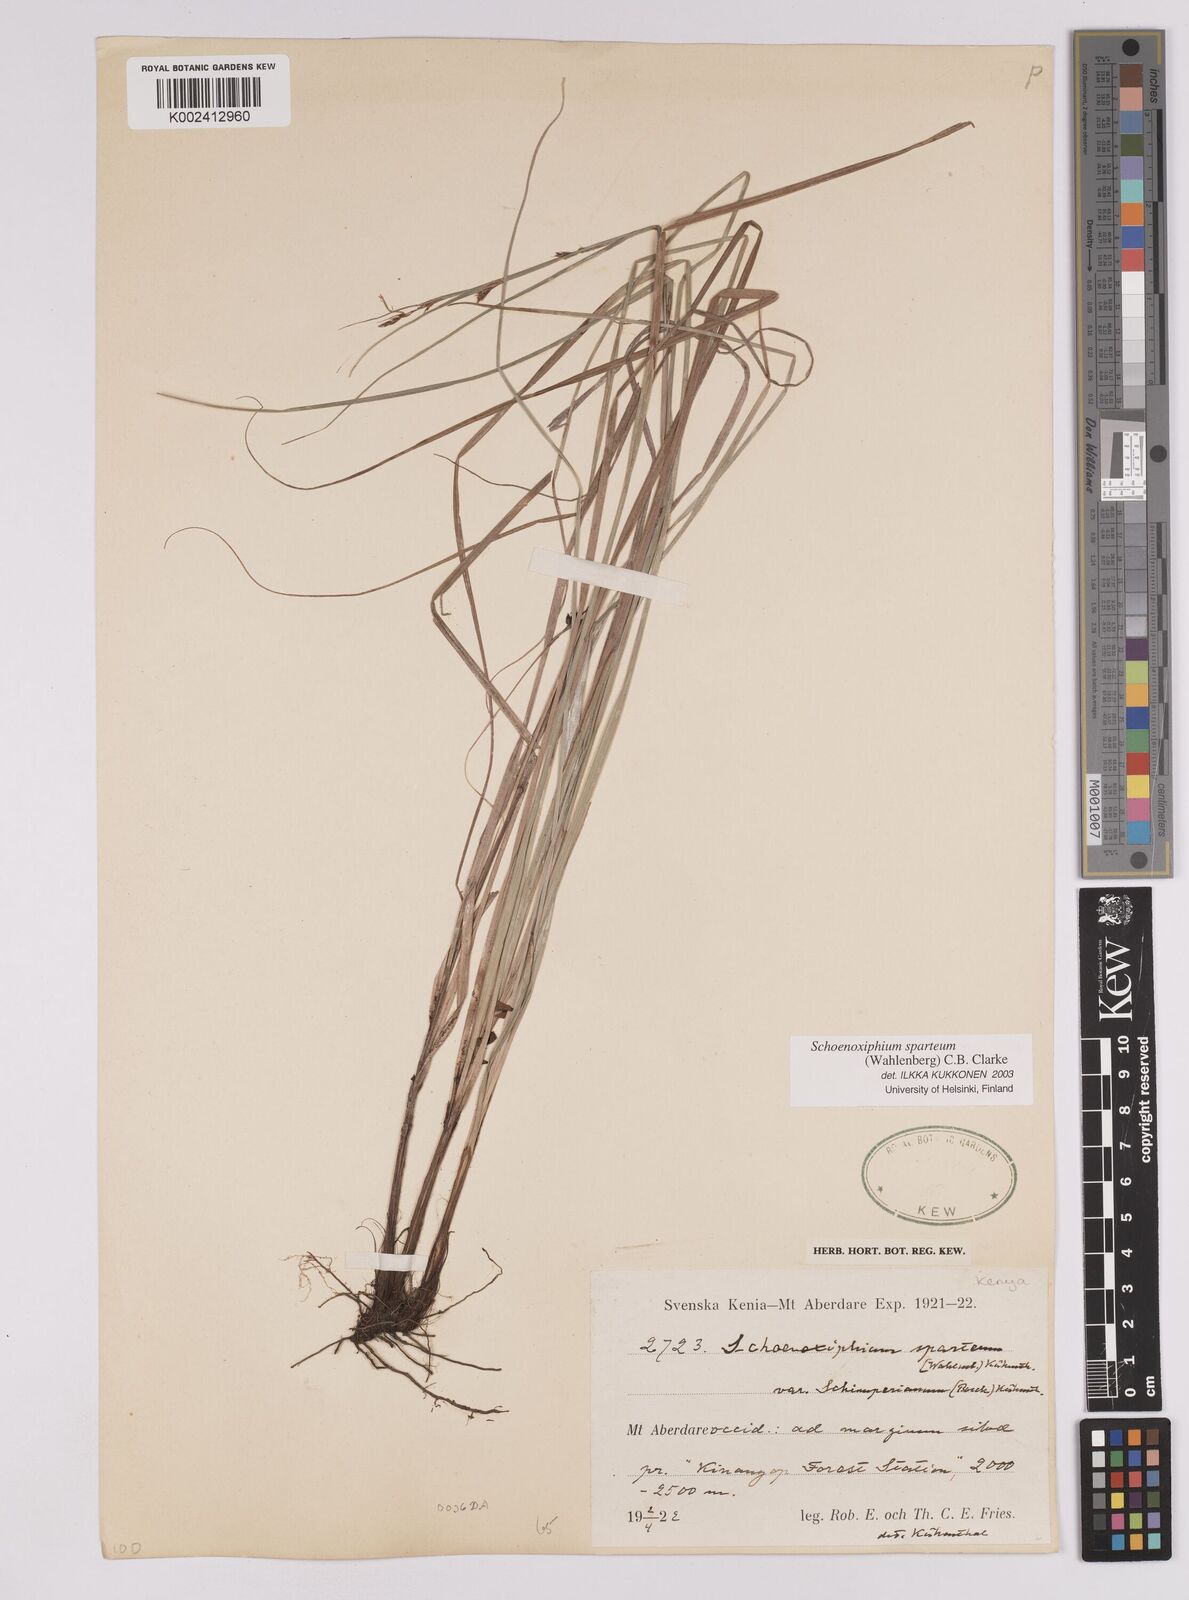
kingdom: Plantae
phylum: Tracheophyta
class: Liliopsida
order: Poales
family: Cyperaceae
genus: Carex
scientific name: Carex schimperiana
